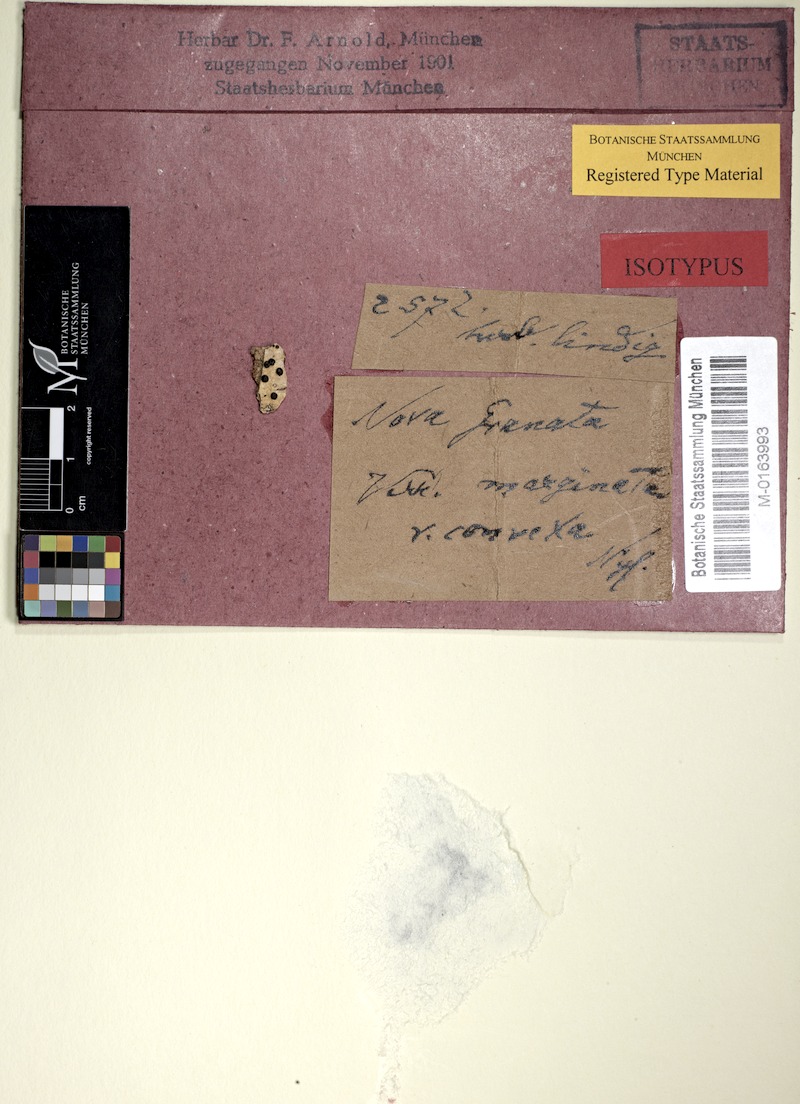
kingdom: Fungi
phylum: Ascomycota
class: Eurotiomycetes
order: Pyrenulales
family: Pyrenulaceae
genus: Pyrenula
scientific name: Pyrenula convexa
